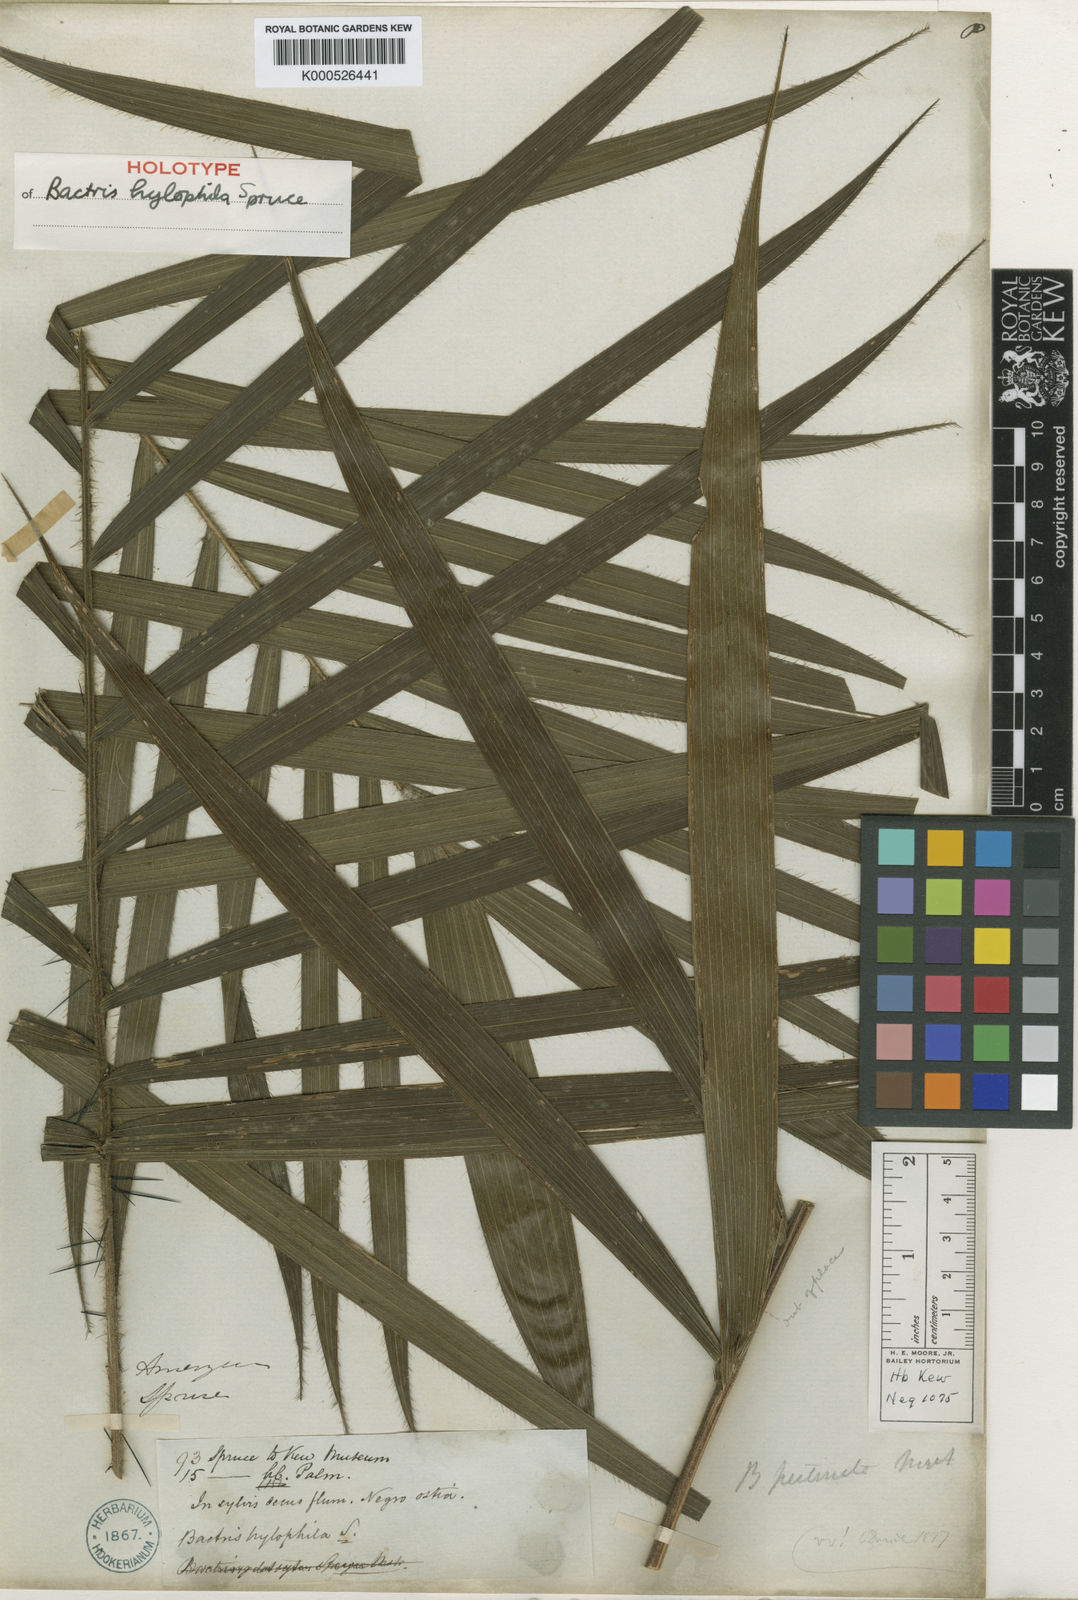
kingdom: Plantae
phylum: Tracheophyta
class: Liliopsida
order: Arecales
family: Arecaceae
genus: Bactris
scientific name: Bactris hirta
